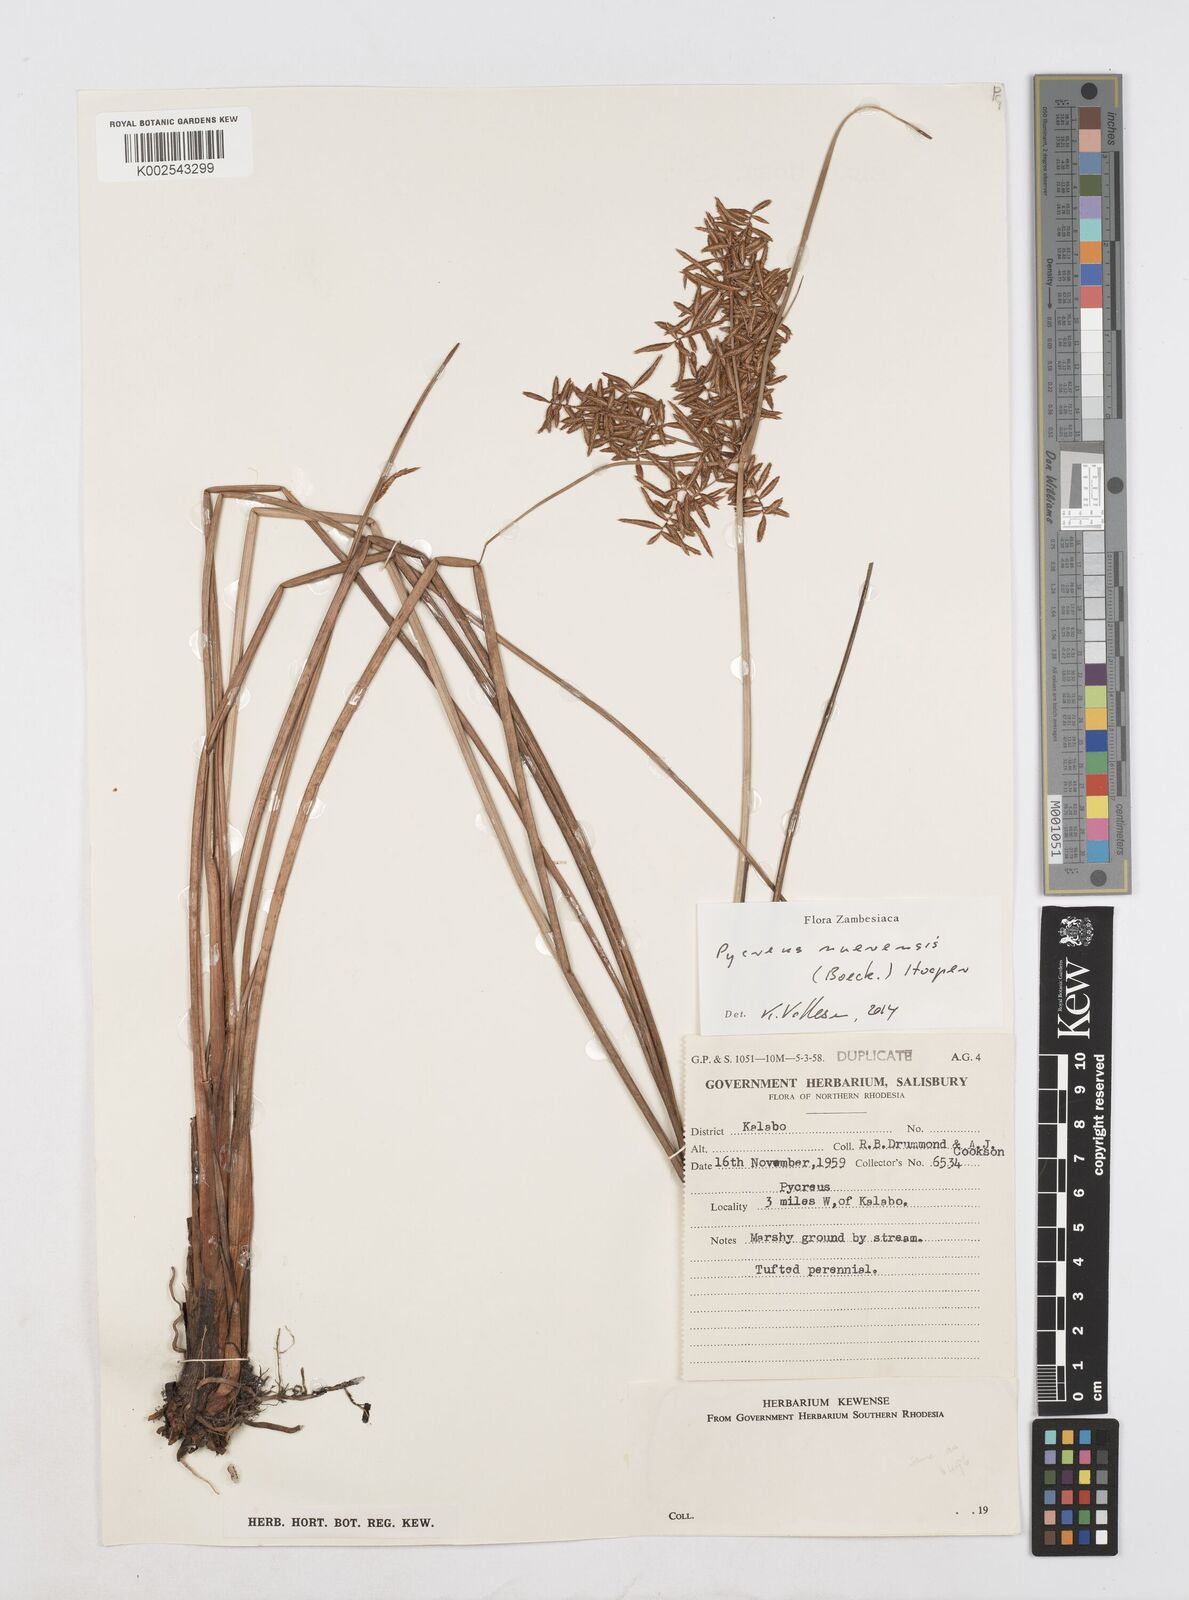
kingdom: Plantae
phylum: Tracheophyta
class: Liliopsida
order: Poales
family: Cyperaceae
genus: Cyperus
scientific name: Cyperus nuerensis
